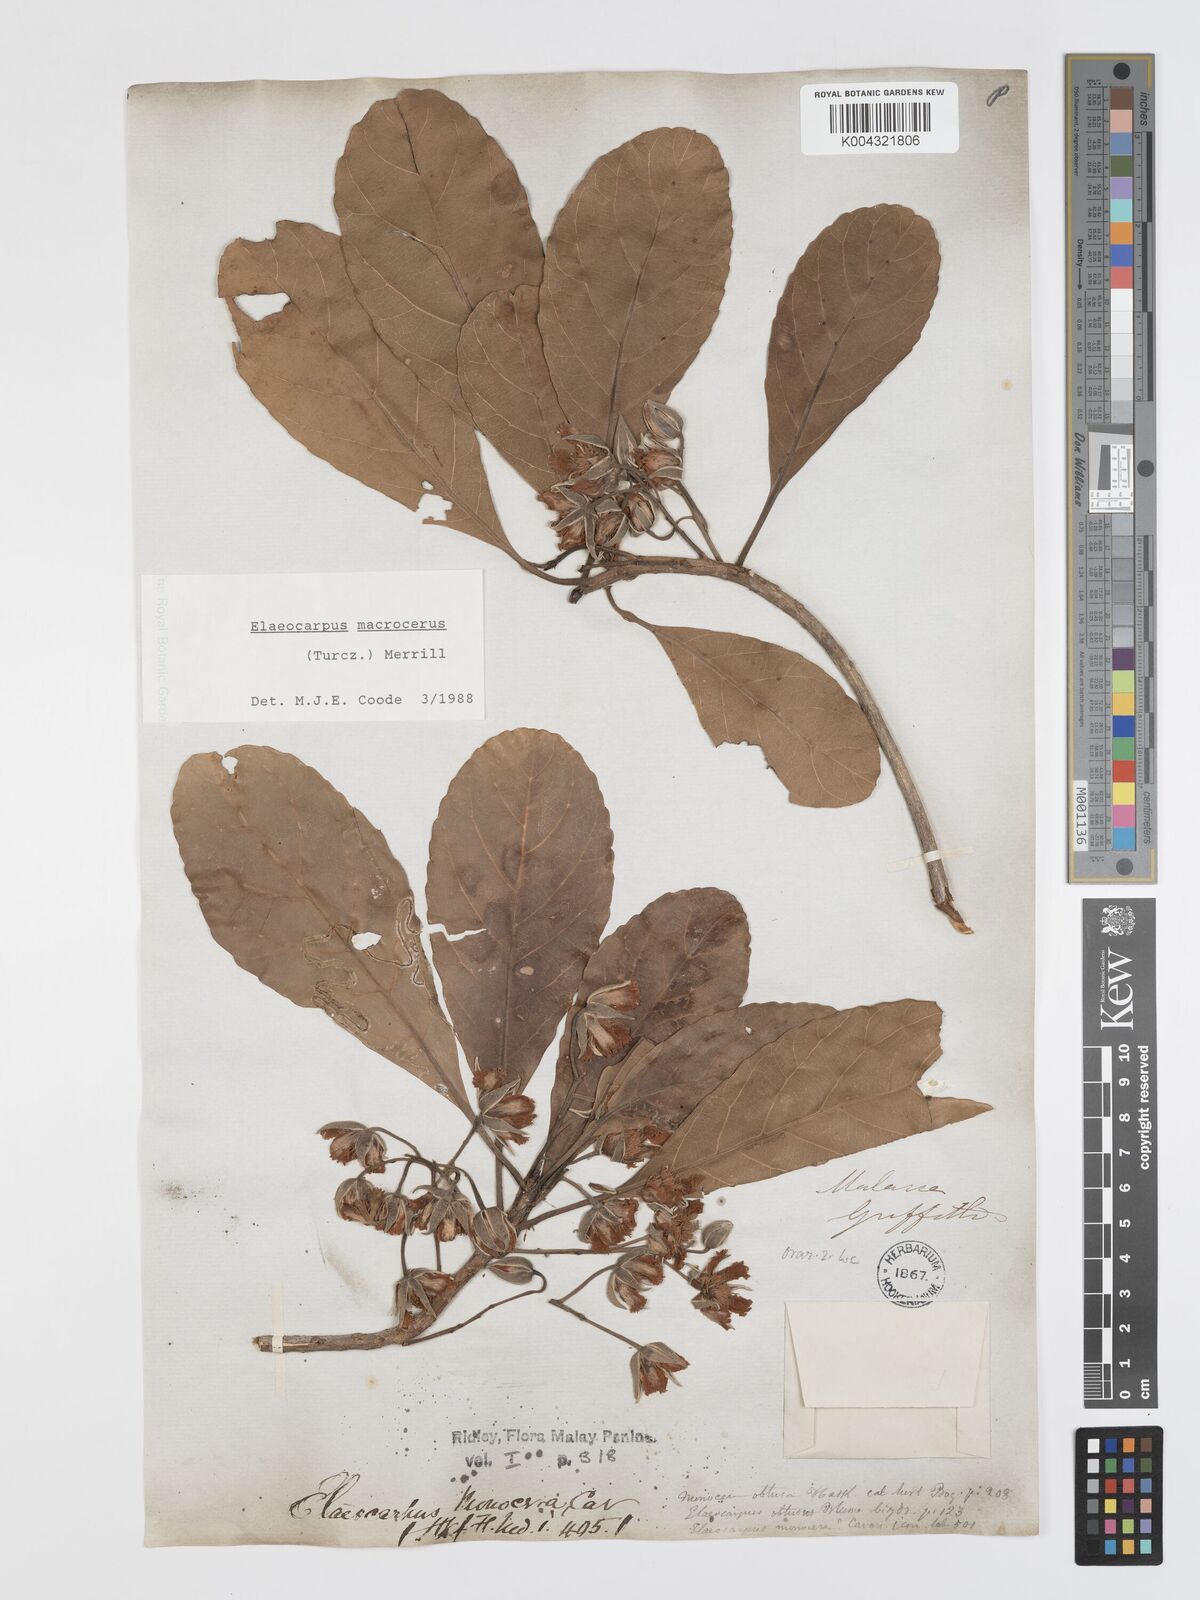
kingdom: Plantae
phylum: Tracheophyta
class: Magnoliopsida
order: Oxalidales
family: Elaeocarpaceae
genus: Elaeocarpus
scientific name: Elaeocarpus macrocerus
